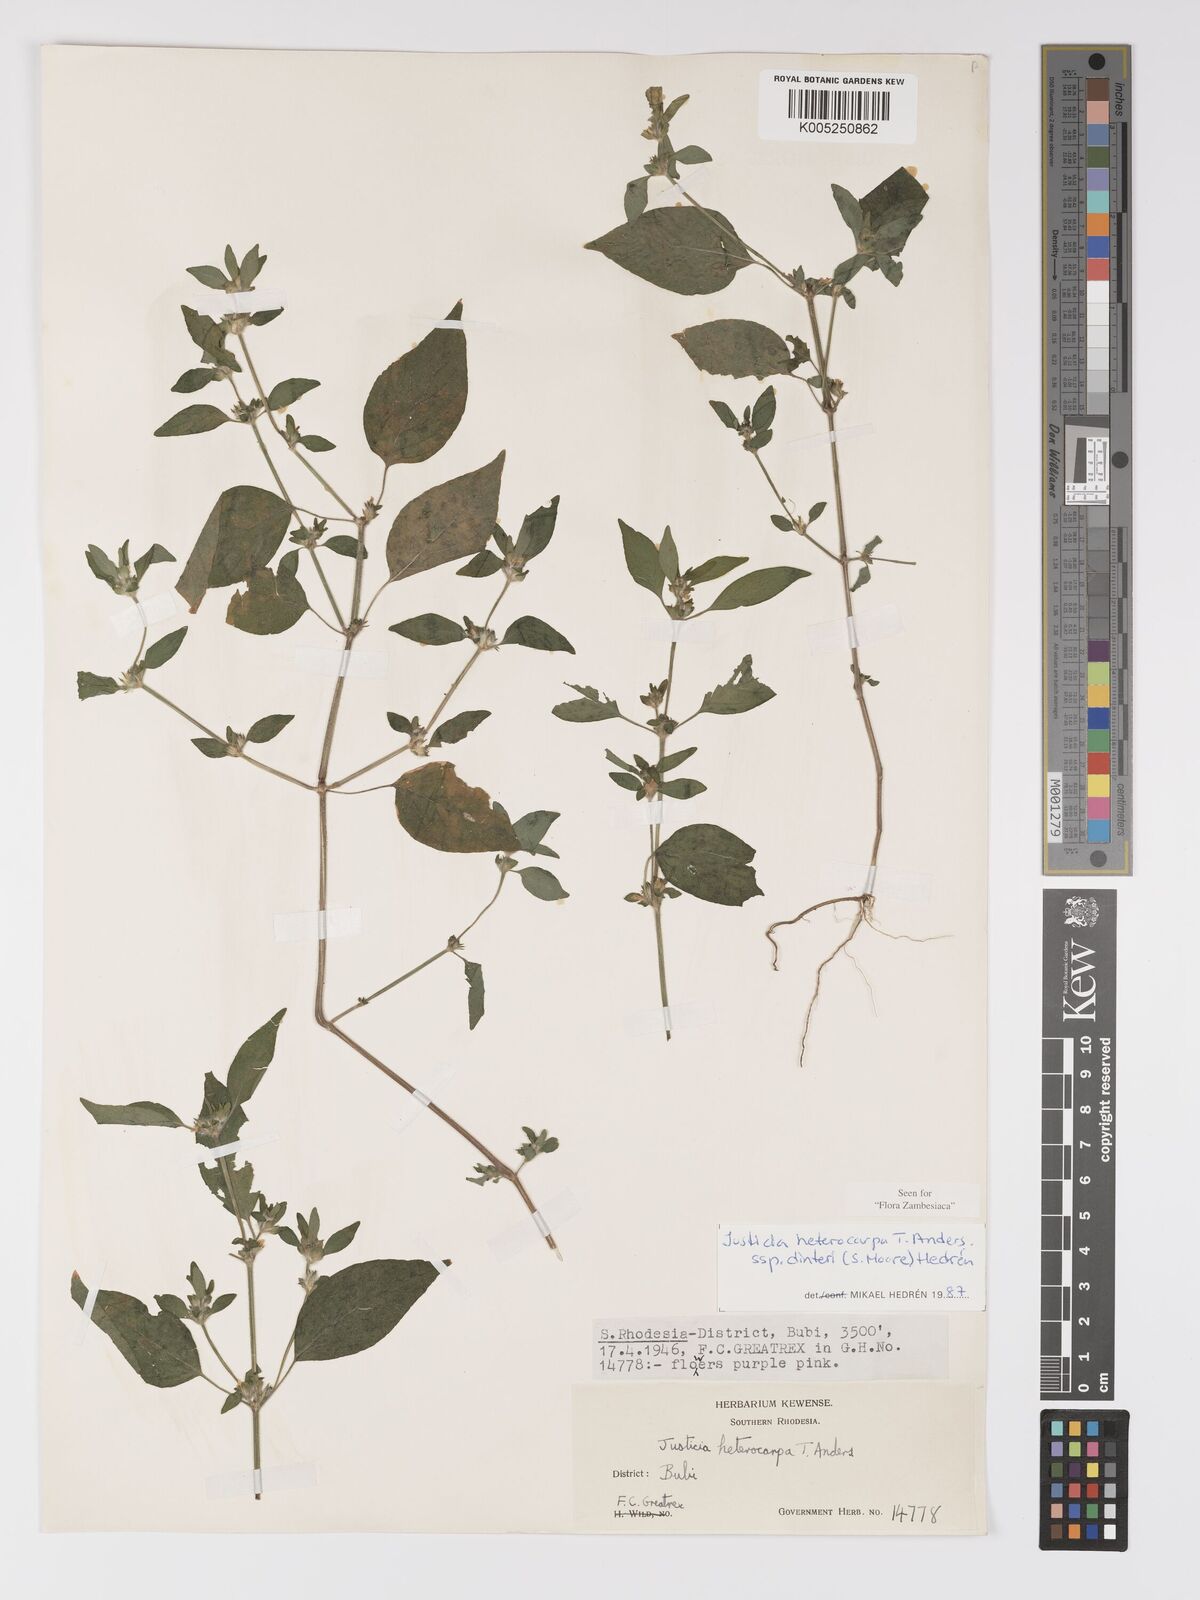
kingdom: Plantae
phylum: Tracheophyta
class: Magnoliopsida
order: Lamiales
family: Acanthaceae
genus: Justicia
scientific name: Justicia heterocarpa
